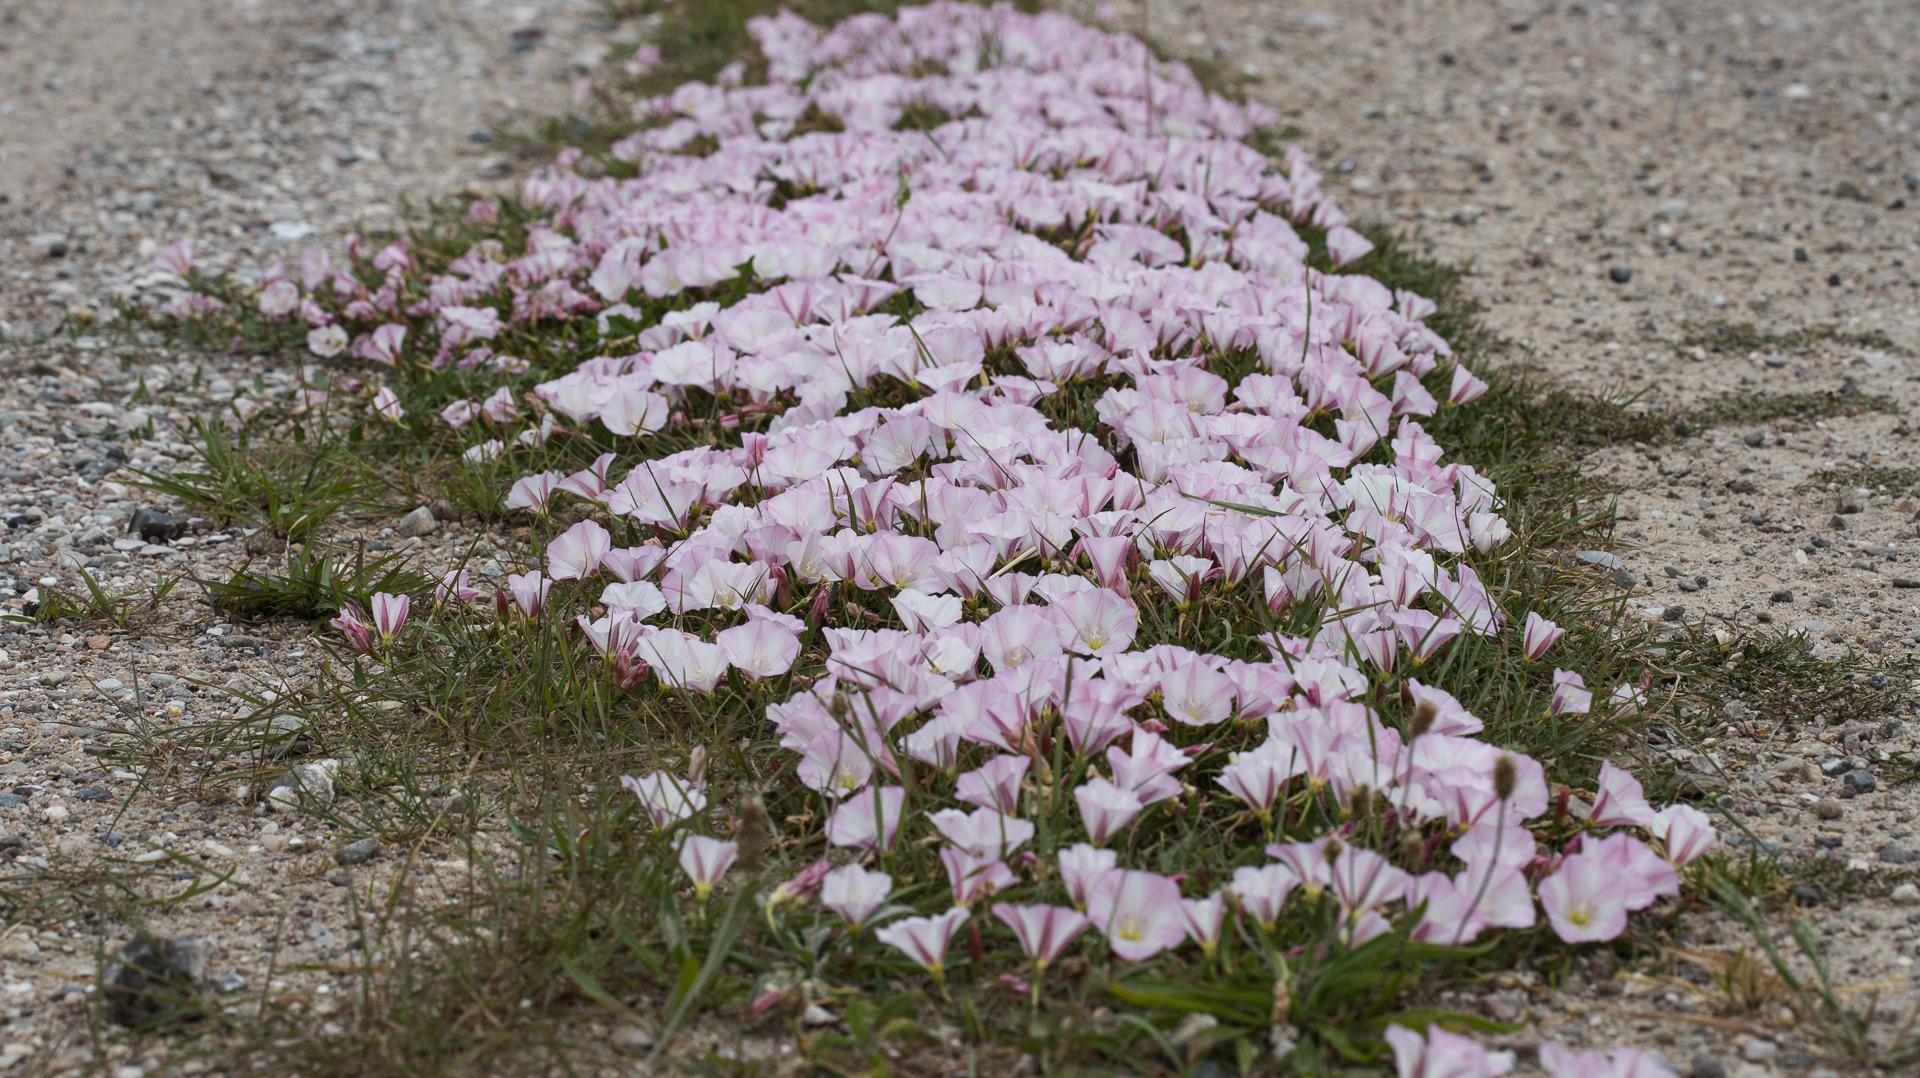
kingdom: Plantae
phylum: Tracheophyta
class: Magnoliopsida
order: Solanales
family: Convolvulaceae
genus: Convolvulus
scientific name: Convolvulus arvensis
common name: Ager-snerle
